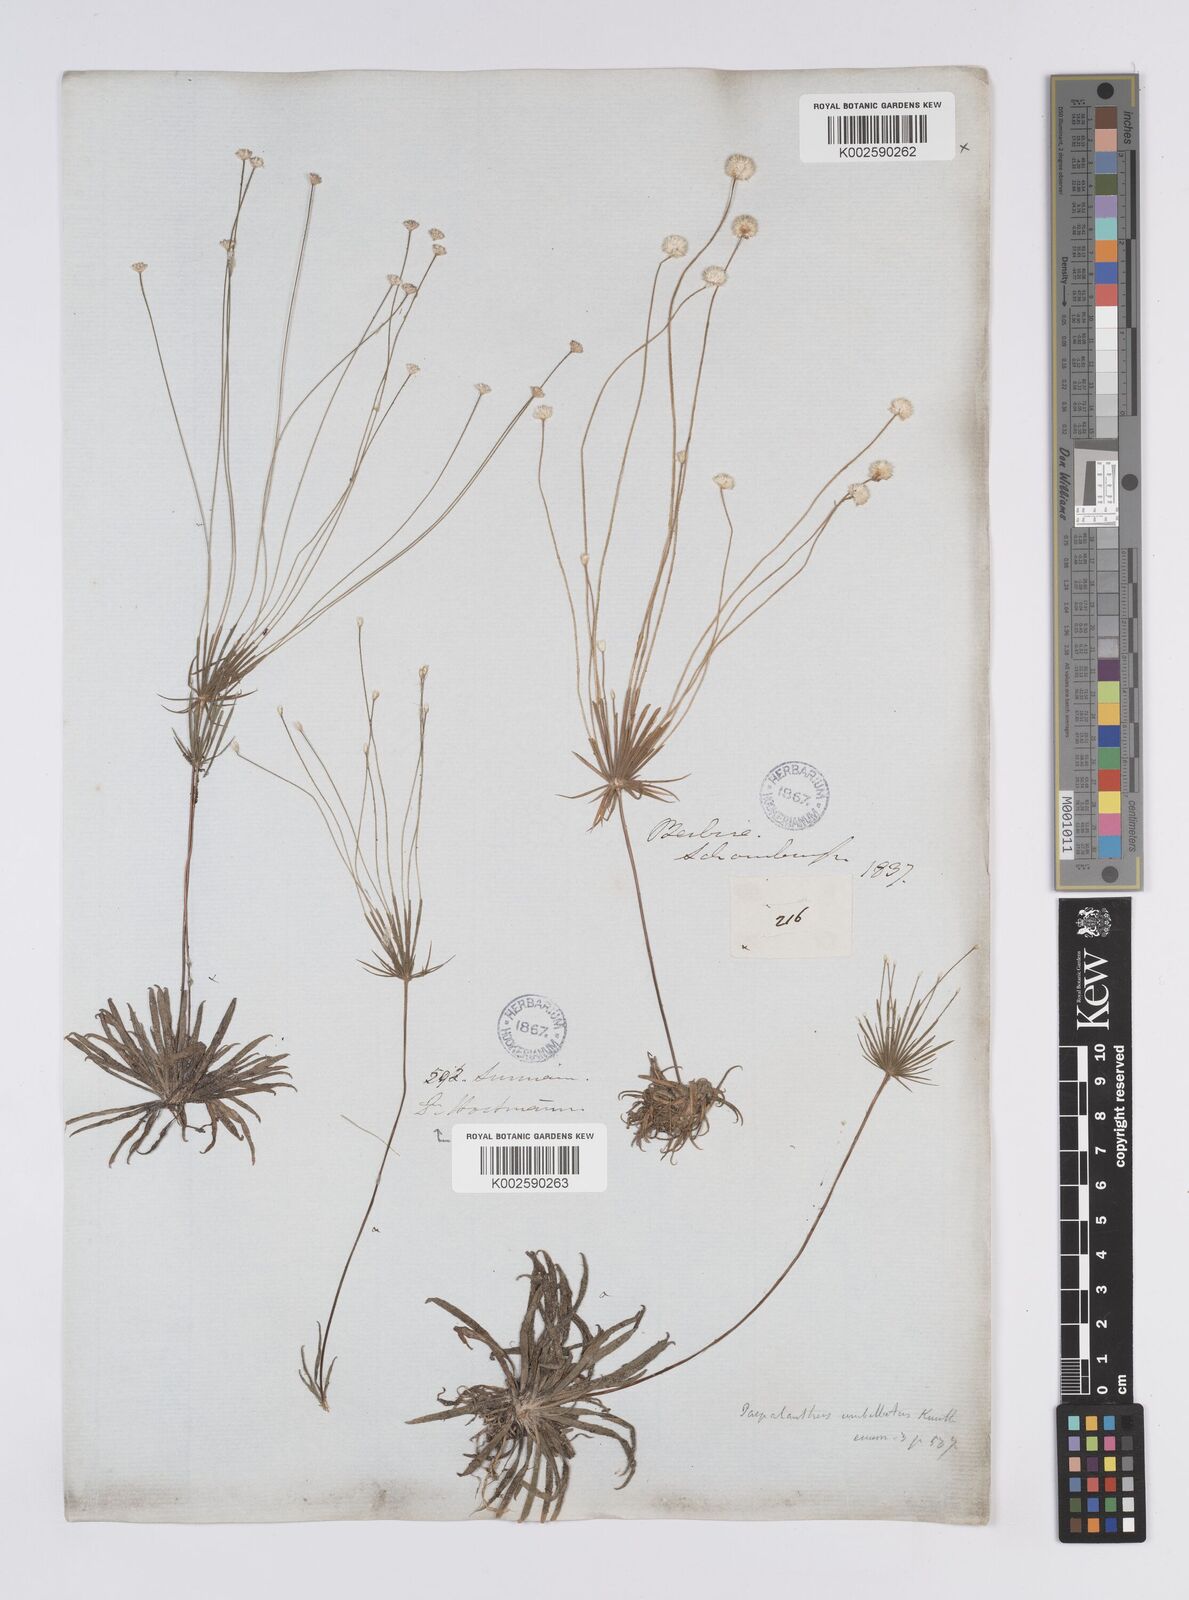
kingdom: Plantae
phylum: Tracheophyta
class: Liliopsida
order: Poales
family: Eriocaulaceae
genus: Syngonanthus
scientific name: Syngonanthus umbellatus
